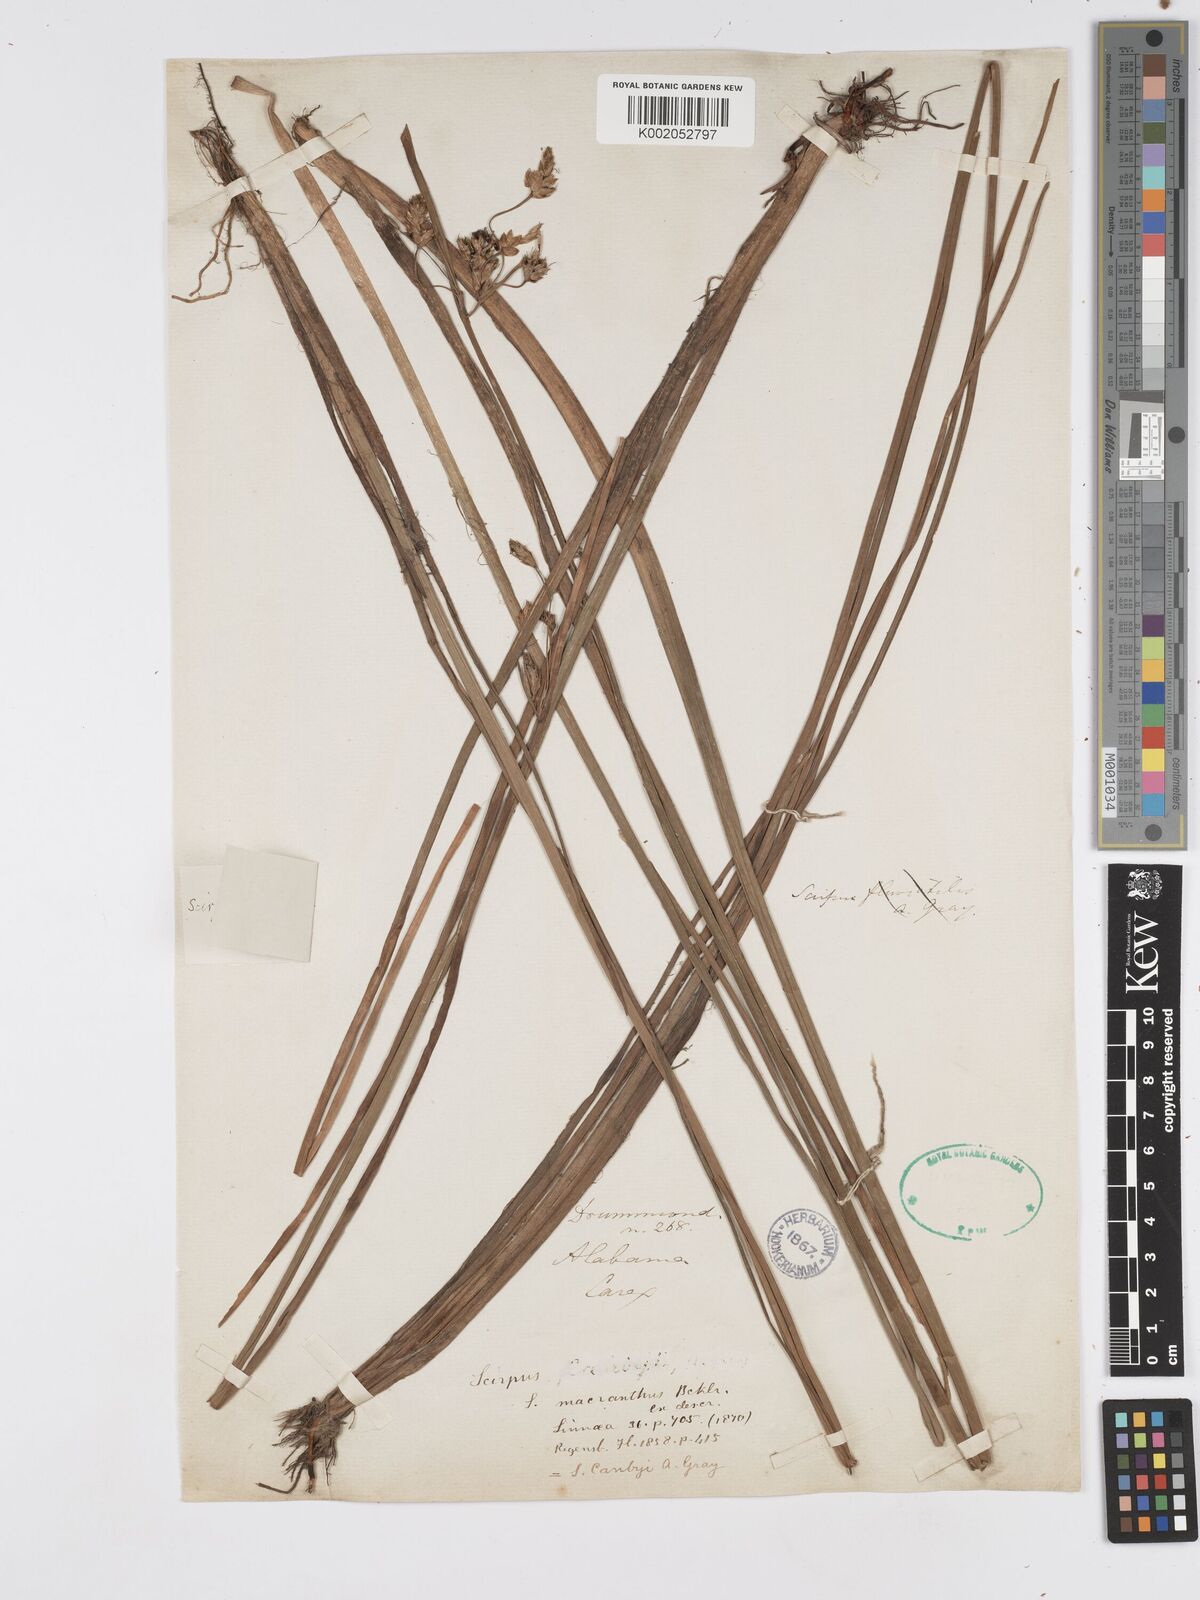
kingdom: Plantae
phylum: Tracheophyta
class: Liliopsida
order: Poales
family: Cyperaceae
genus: Schoenoplectus
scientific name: Schoenoplectus etuberculatus
